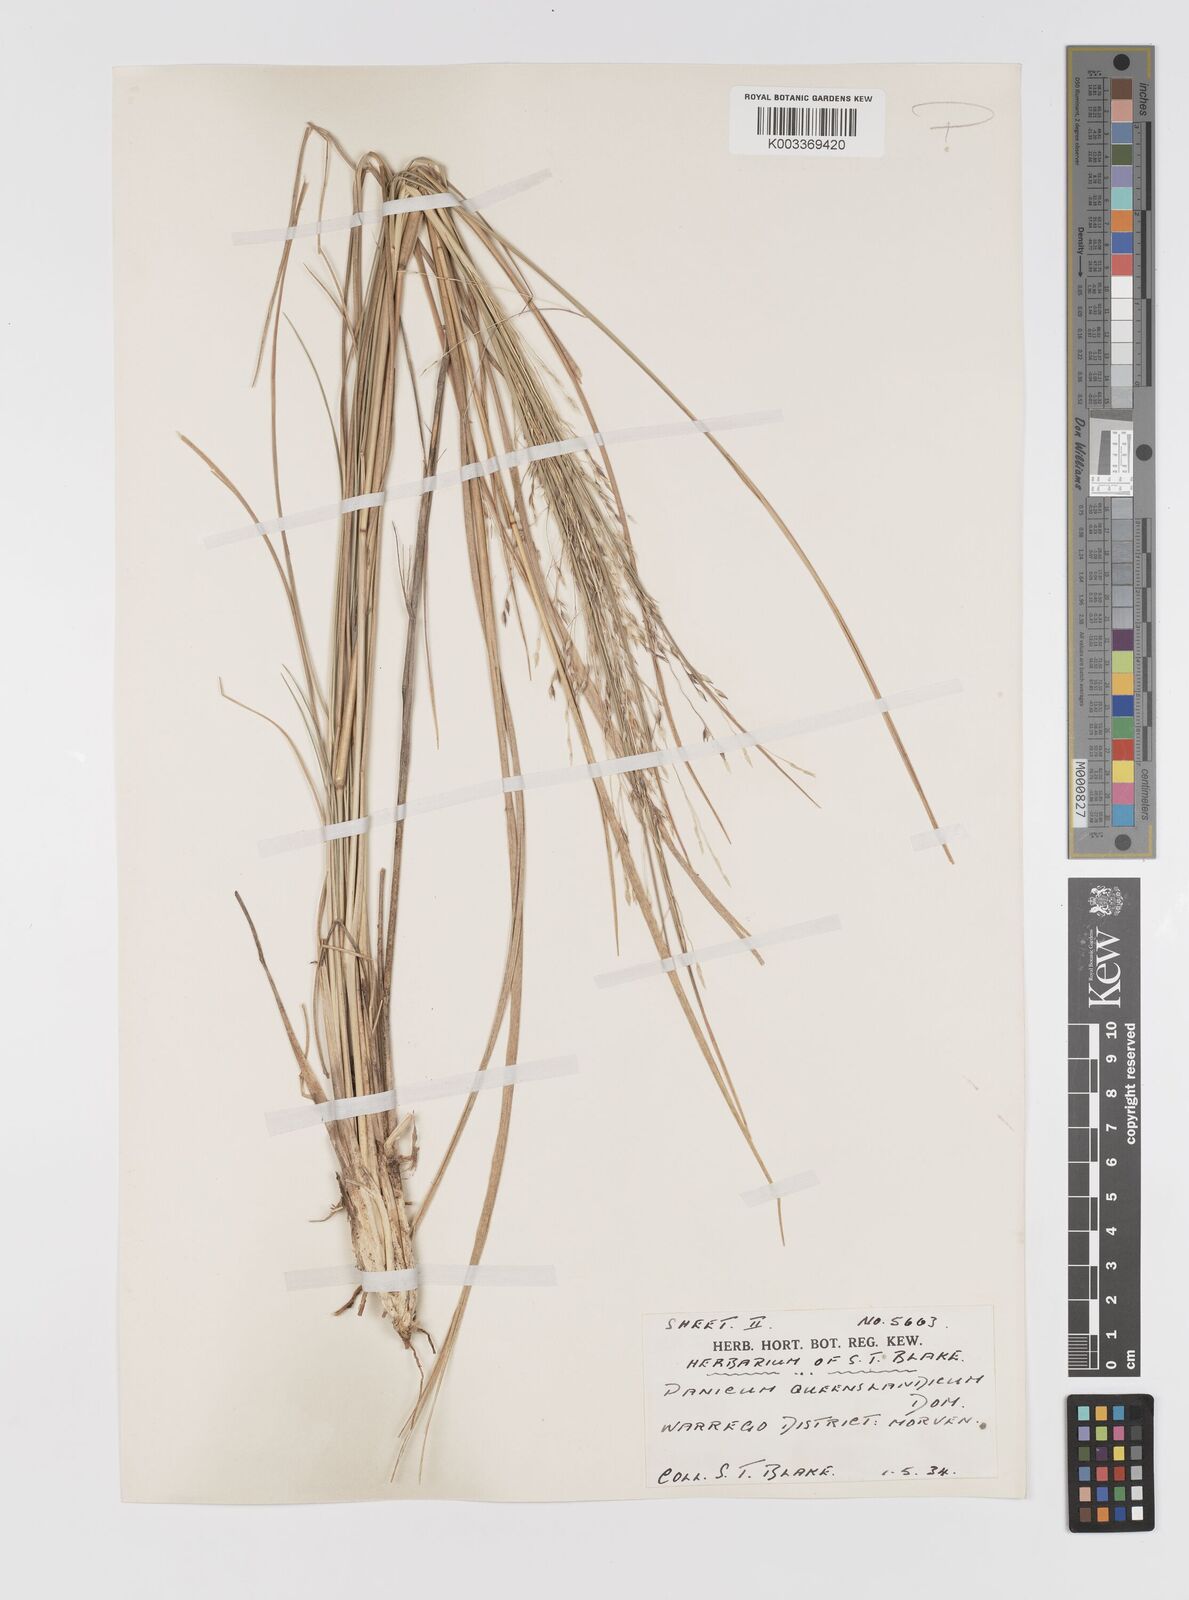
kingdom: Plantae
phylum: Tracheophyta
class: Liliopsida
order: Poales
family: Poaceae
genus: Panicum
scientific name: Panicum queenslandicum
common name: Yabila grass
